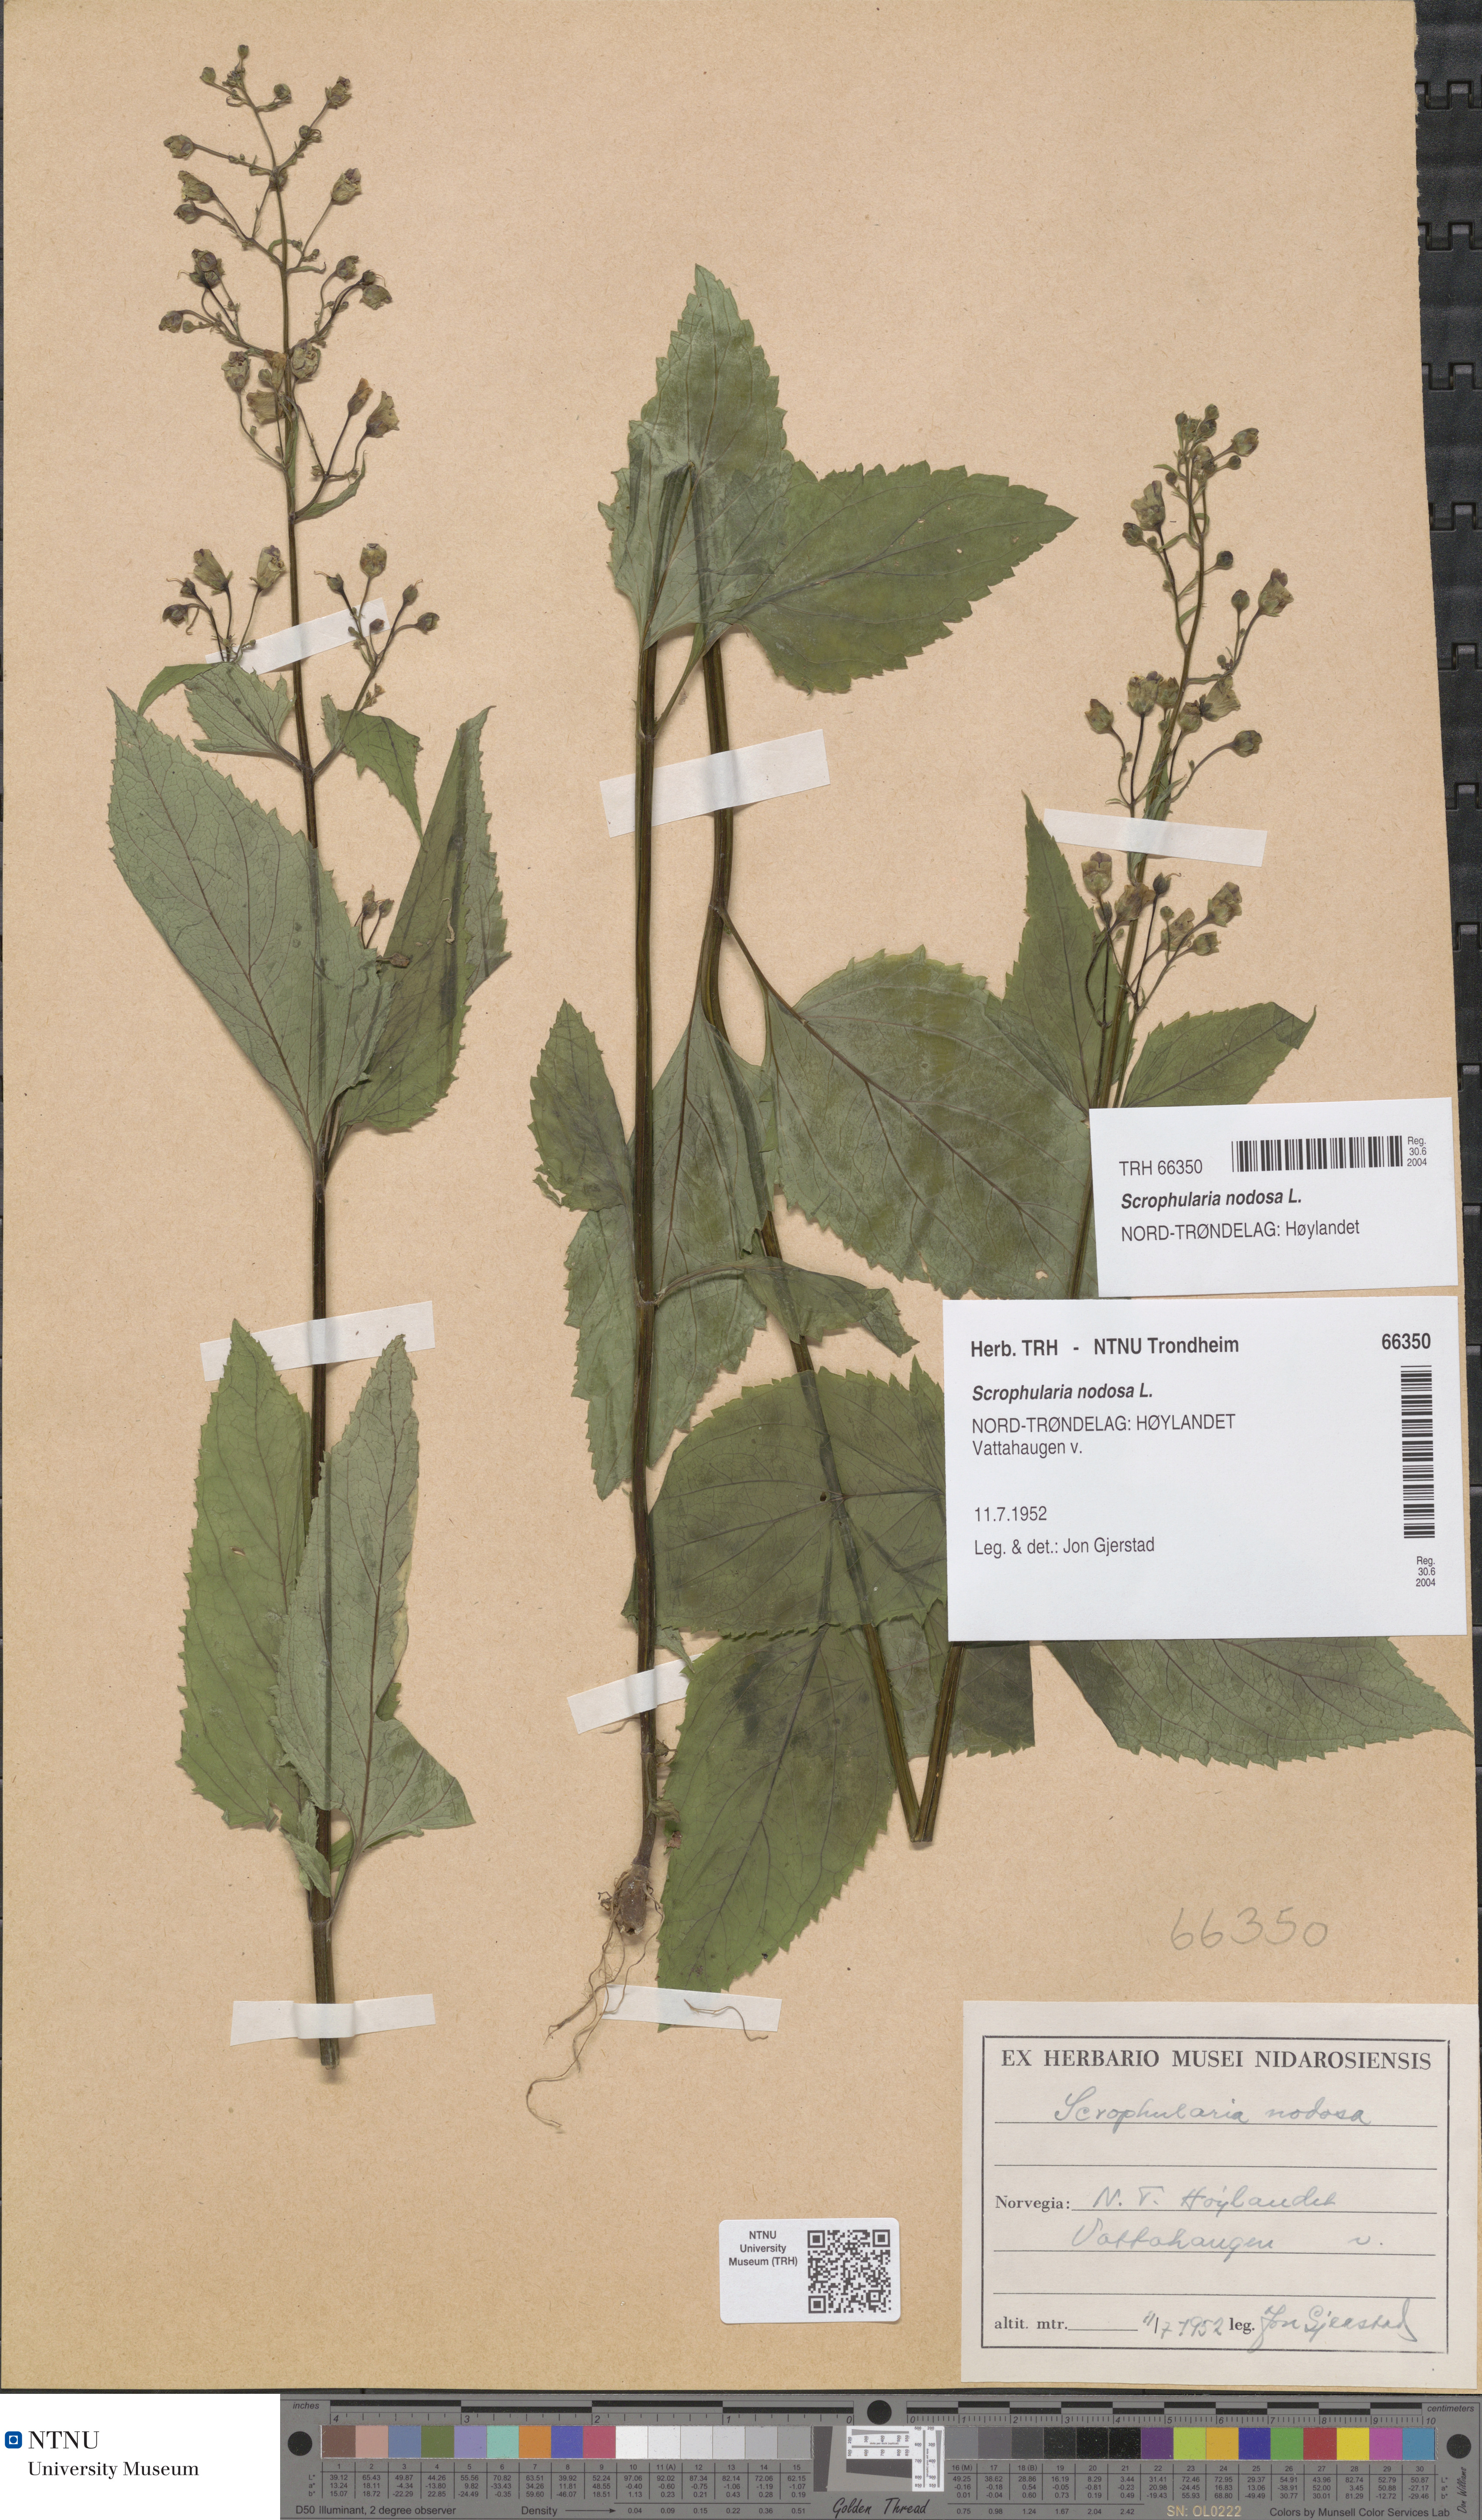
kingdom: Plantae
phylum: Tracheophyta
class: Magnoliopsida
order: Lamiales
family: Scrophulariaceae
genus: Scrophularia
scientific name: Scrophularia nodosa
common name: Common figwort
